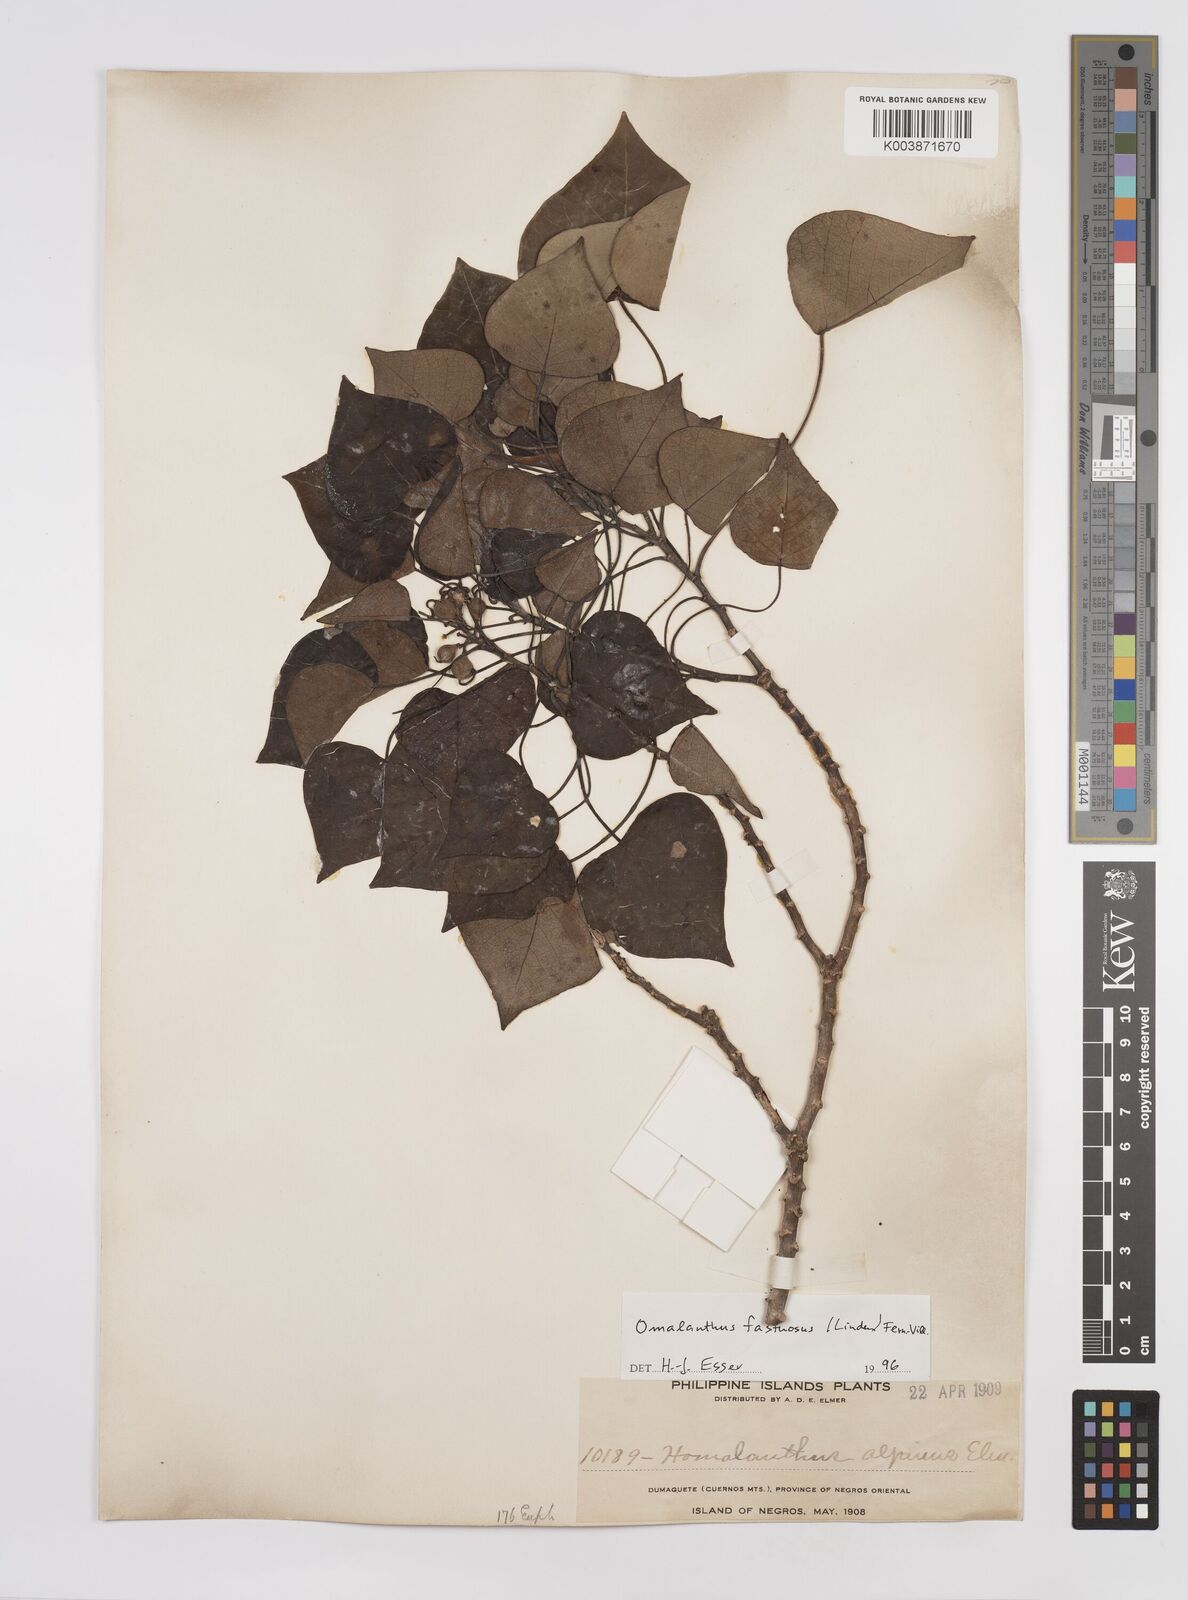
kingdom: Plantae
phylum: Tracheophyta
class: Magnoliopsida
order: Malpighiales
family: Euphorbiaceae
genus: Homalanthus
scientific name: Homalanthus fastuosus
